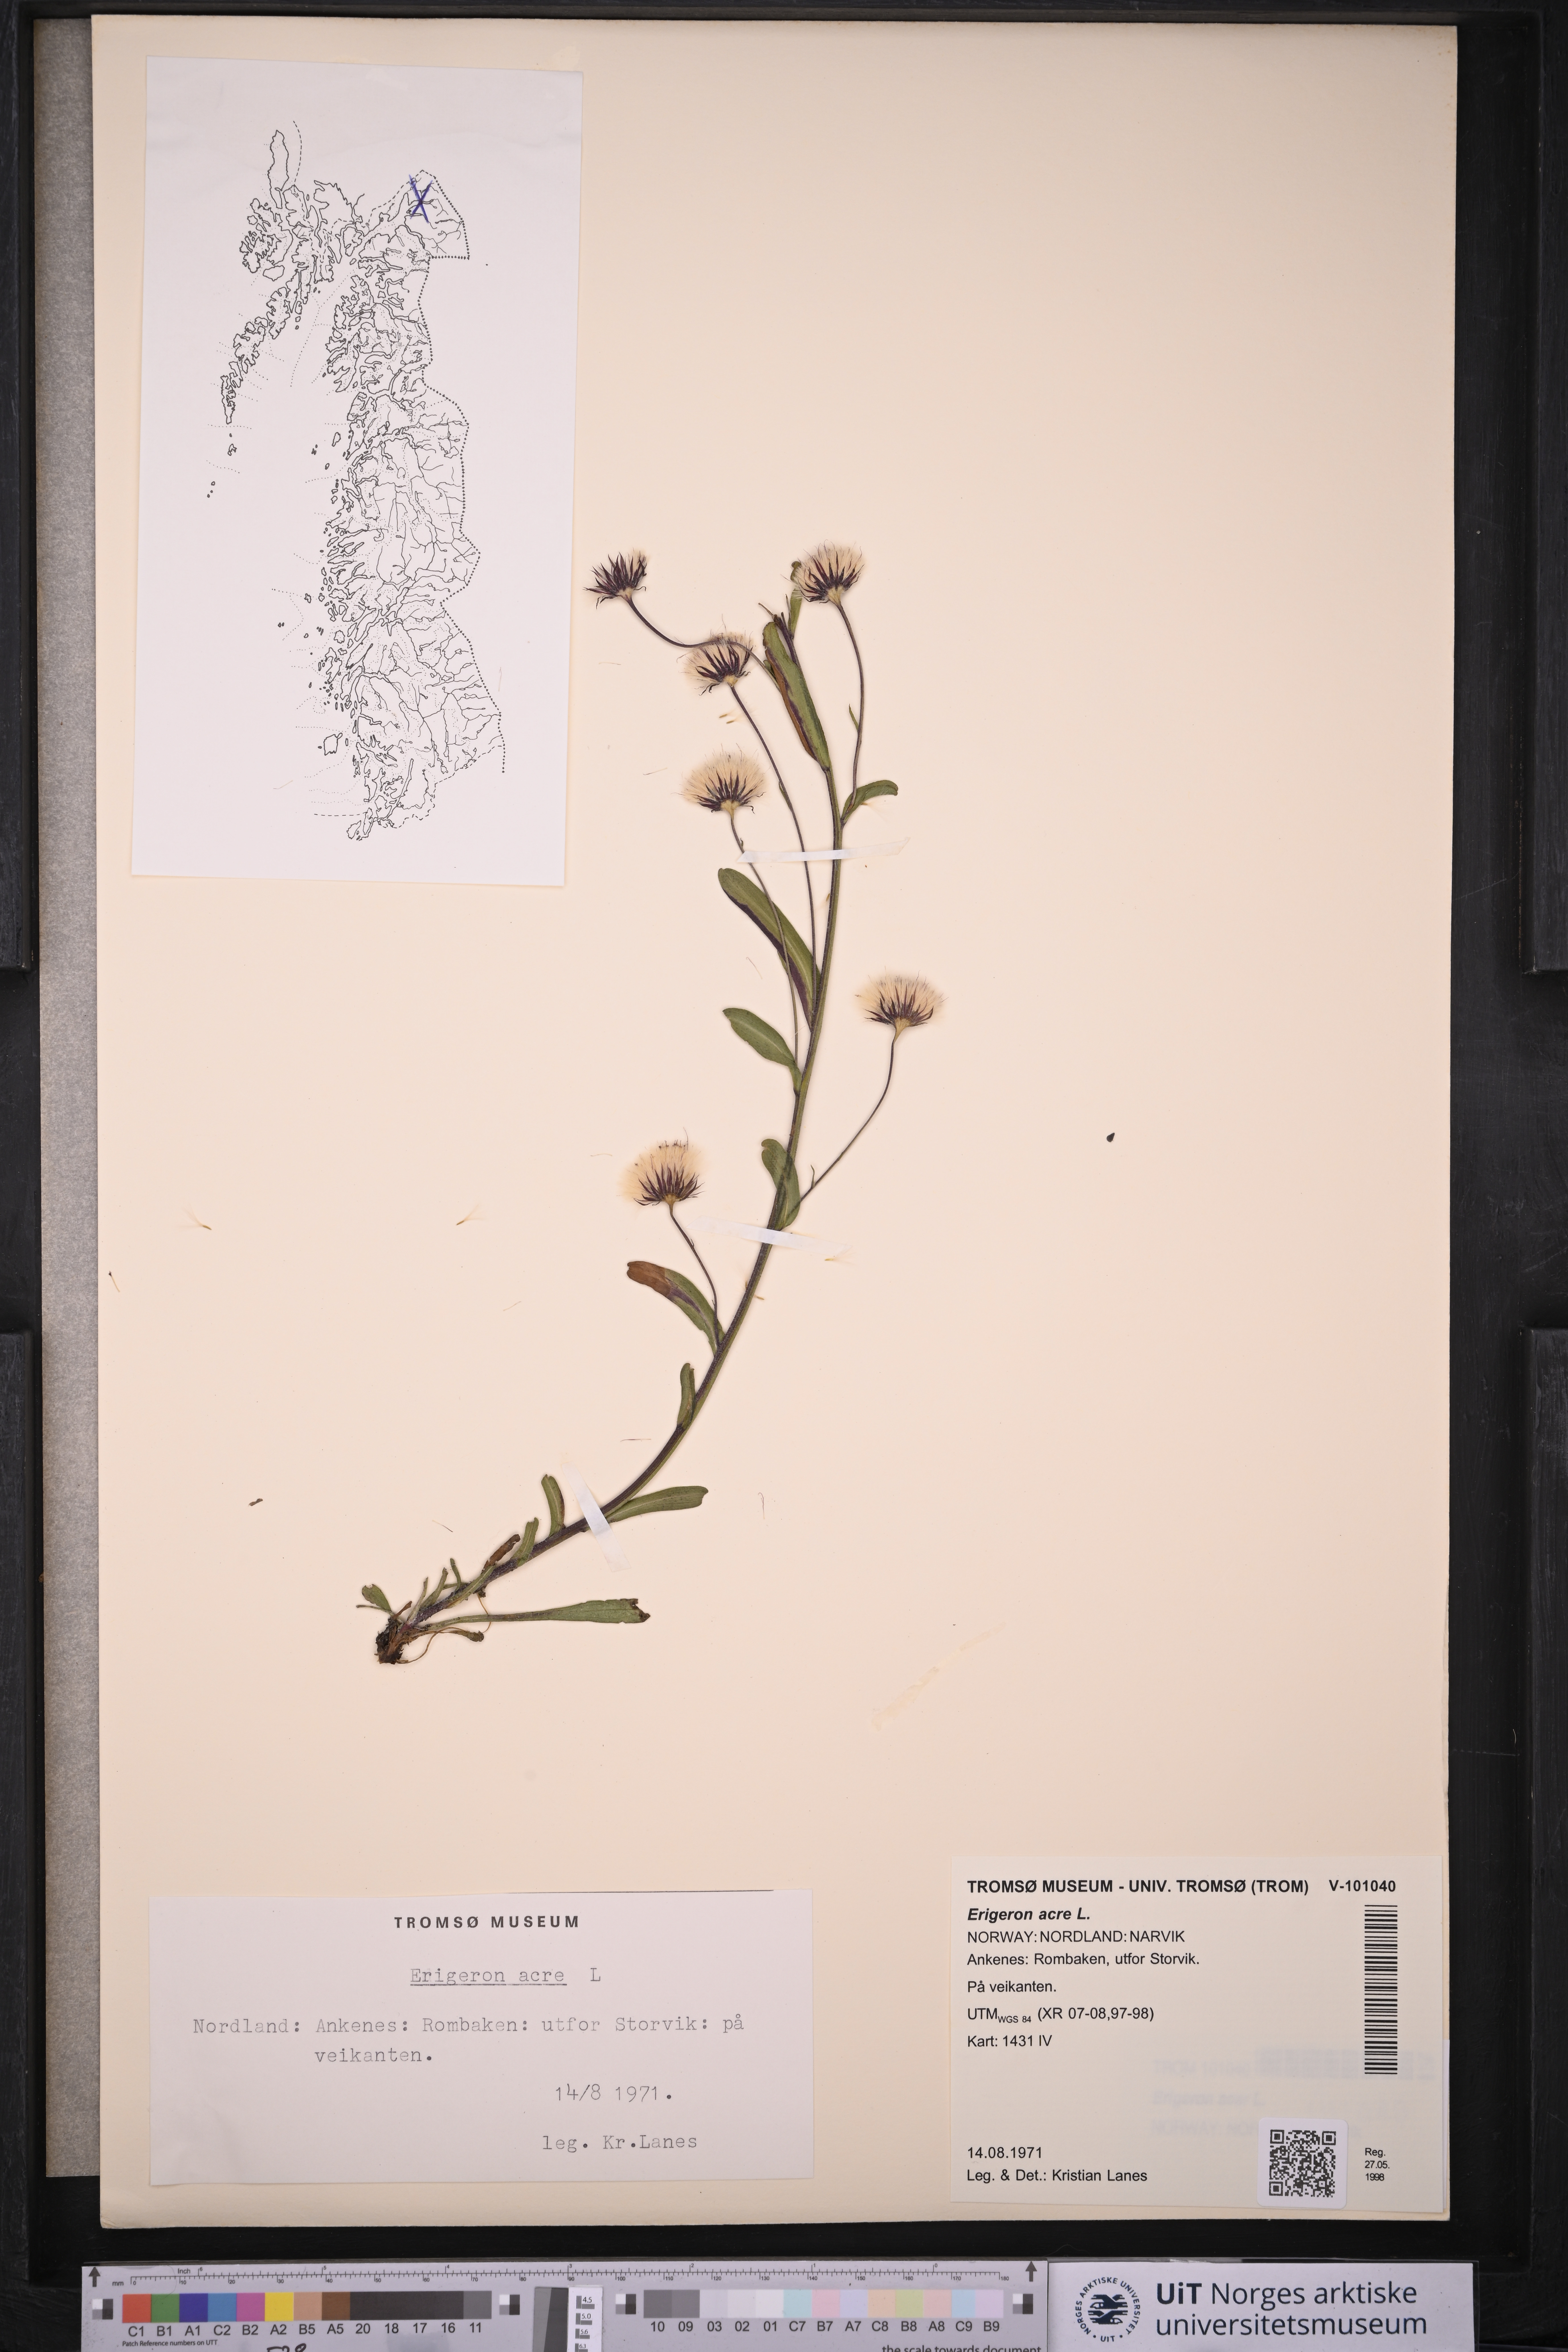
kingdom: Plantae
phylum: Tracheophyta
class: Magnoliopsida
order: Asterales
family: Asteraceae
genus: Erigeron
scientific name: Erigeron acris
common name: Blue fleabane
